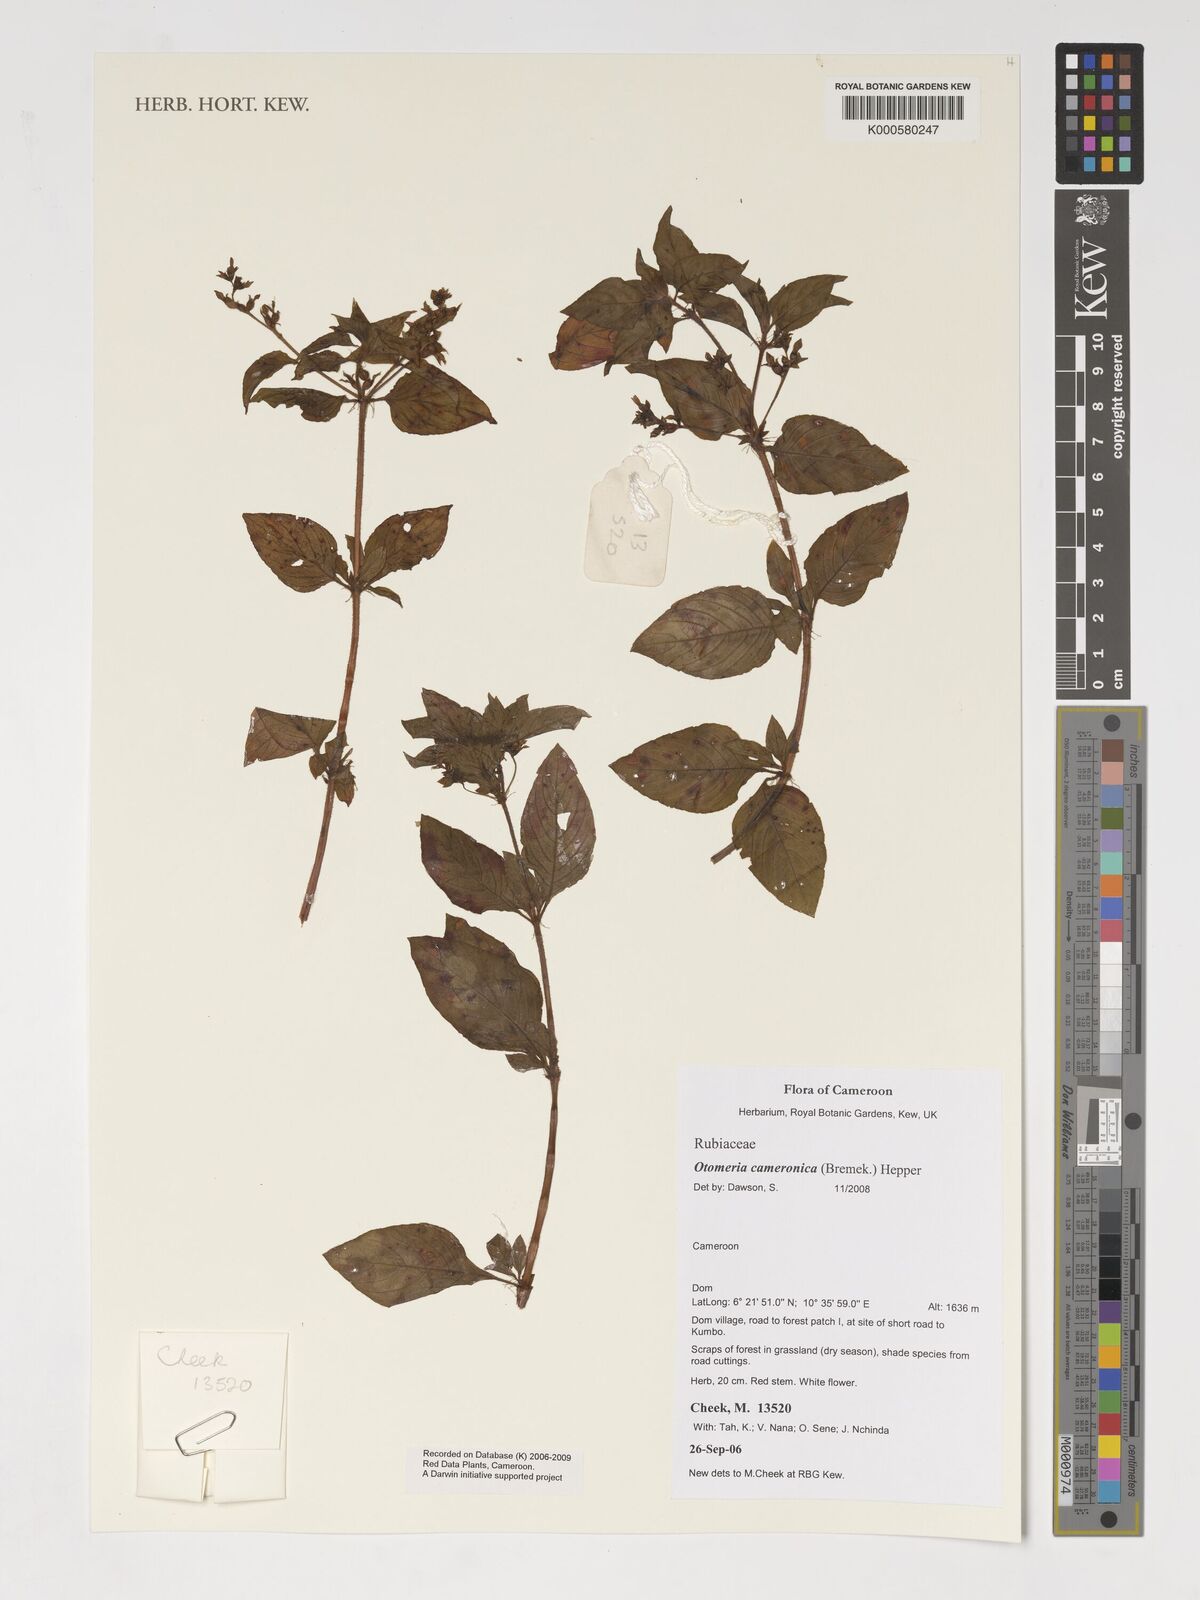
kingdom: Plantae
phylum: Tracheophyta
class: Magnoliopsida
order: Gentianales
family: Rubiaceae
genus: Otomeria
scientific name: Otomeria cameronica
